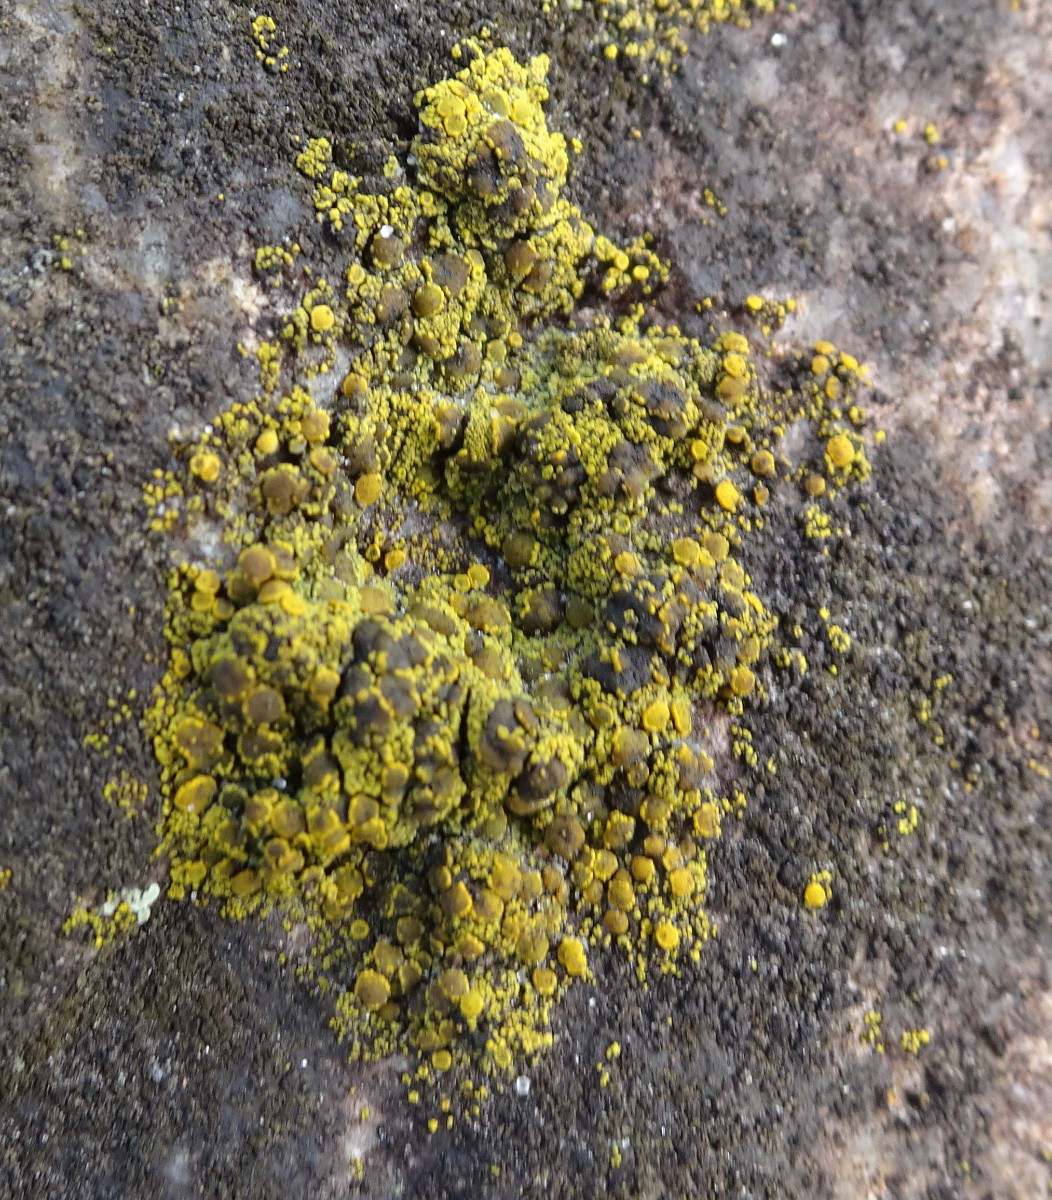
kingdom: Fungi
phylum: Ascomycota
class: Candelariomycetes
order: Candelariales
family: Candelariaceae
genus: Candelariella
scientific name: Candelariella vitellina
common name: almindelig æggeblommelav
